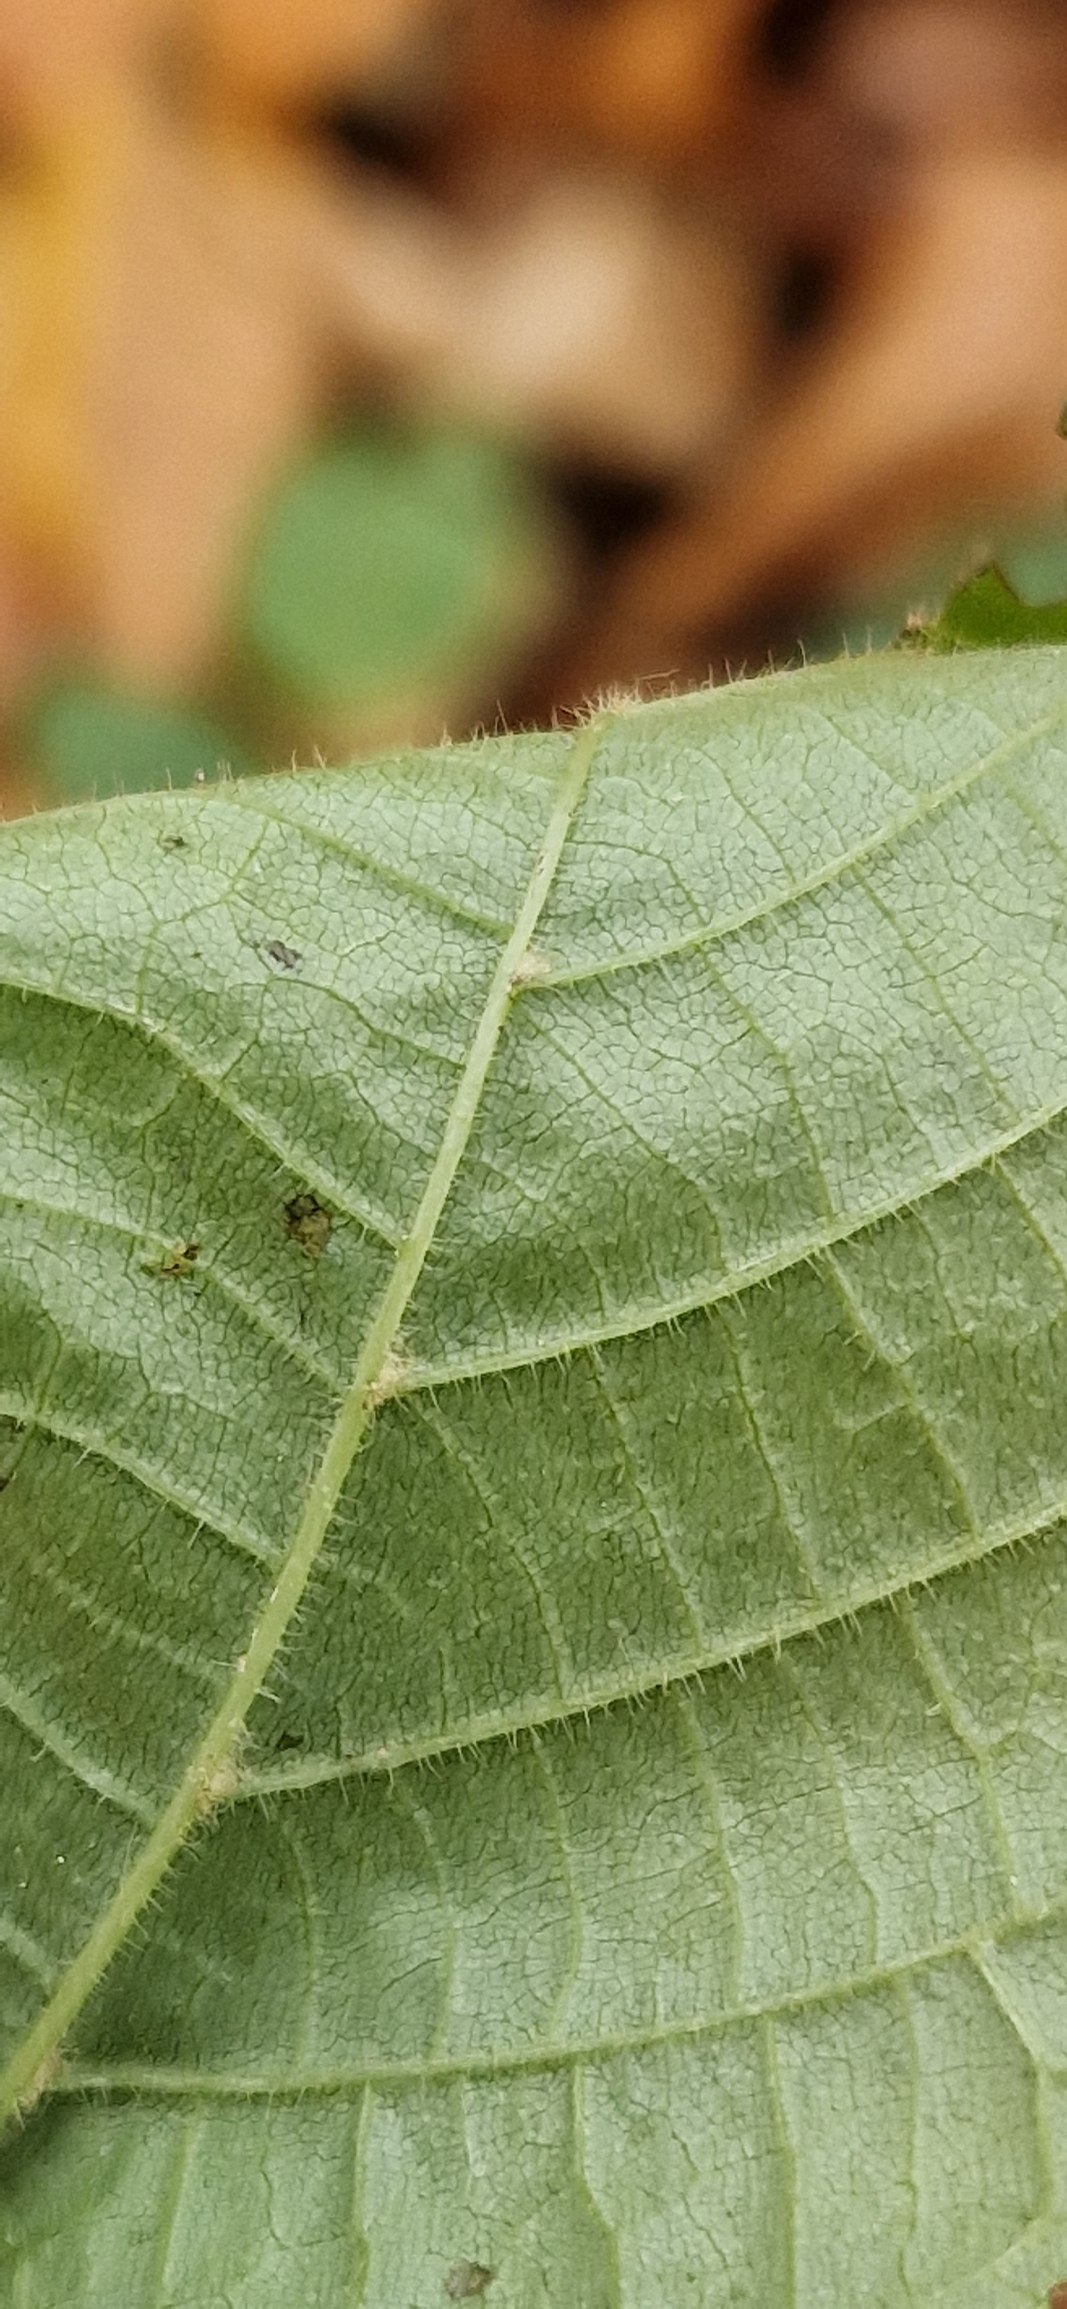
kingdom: Plantae
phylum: Tracheophyta
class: Magnoliopsida
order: Malvales
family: Malvaceae
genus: Tilia
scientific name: Tilia platyphyllos
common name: Storbladet lind
